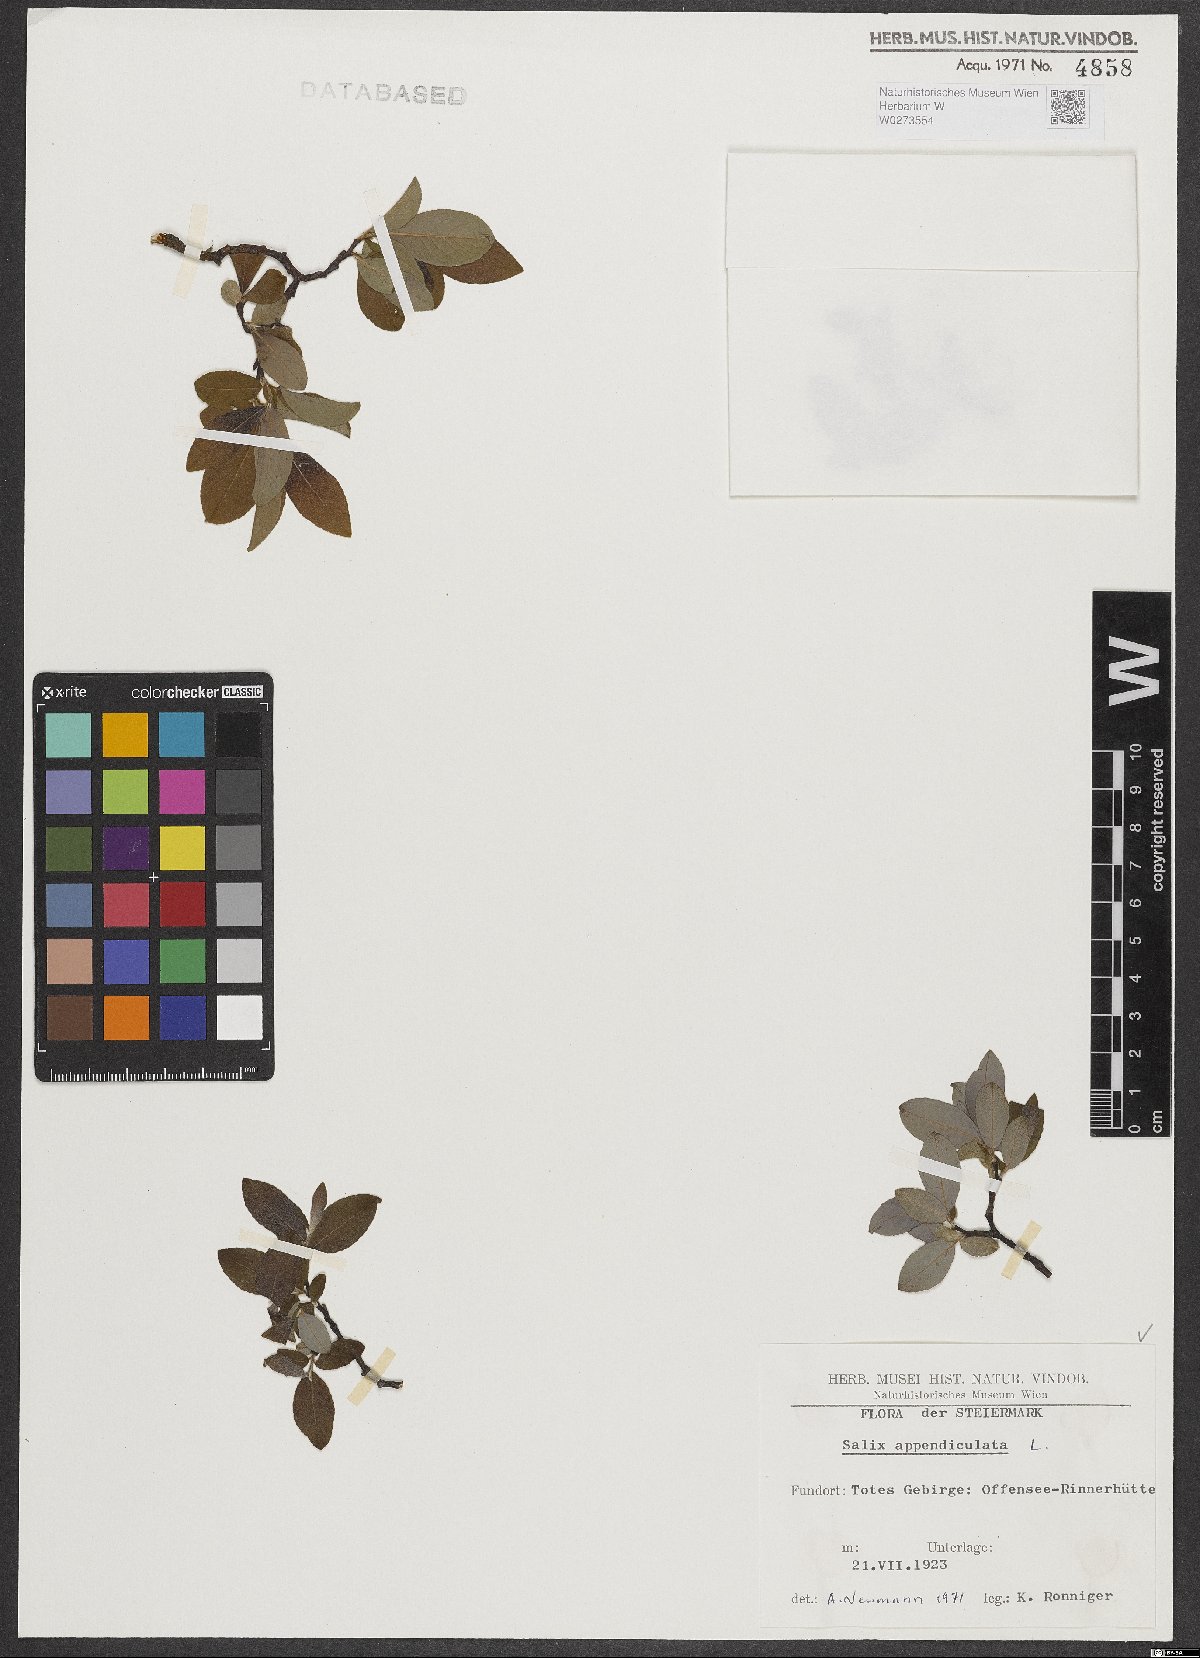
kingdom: Plantae
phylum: Tracheophyta
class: Magnoliopsida
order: Malpighiales
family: Salicaceae
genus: Salix
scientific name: Salix appendiculata
